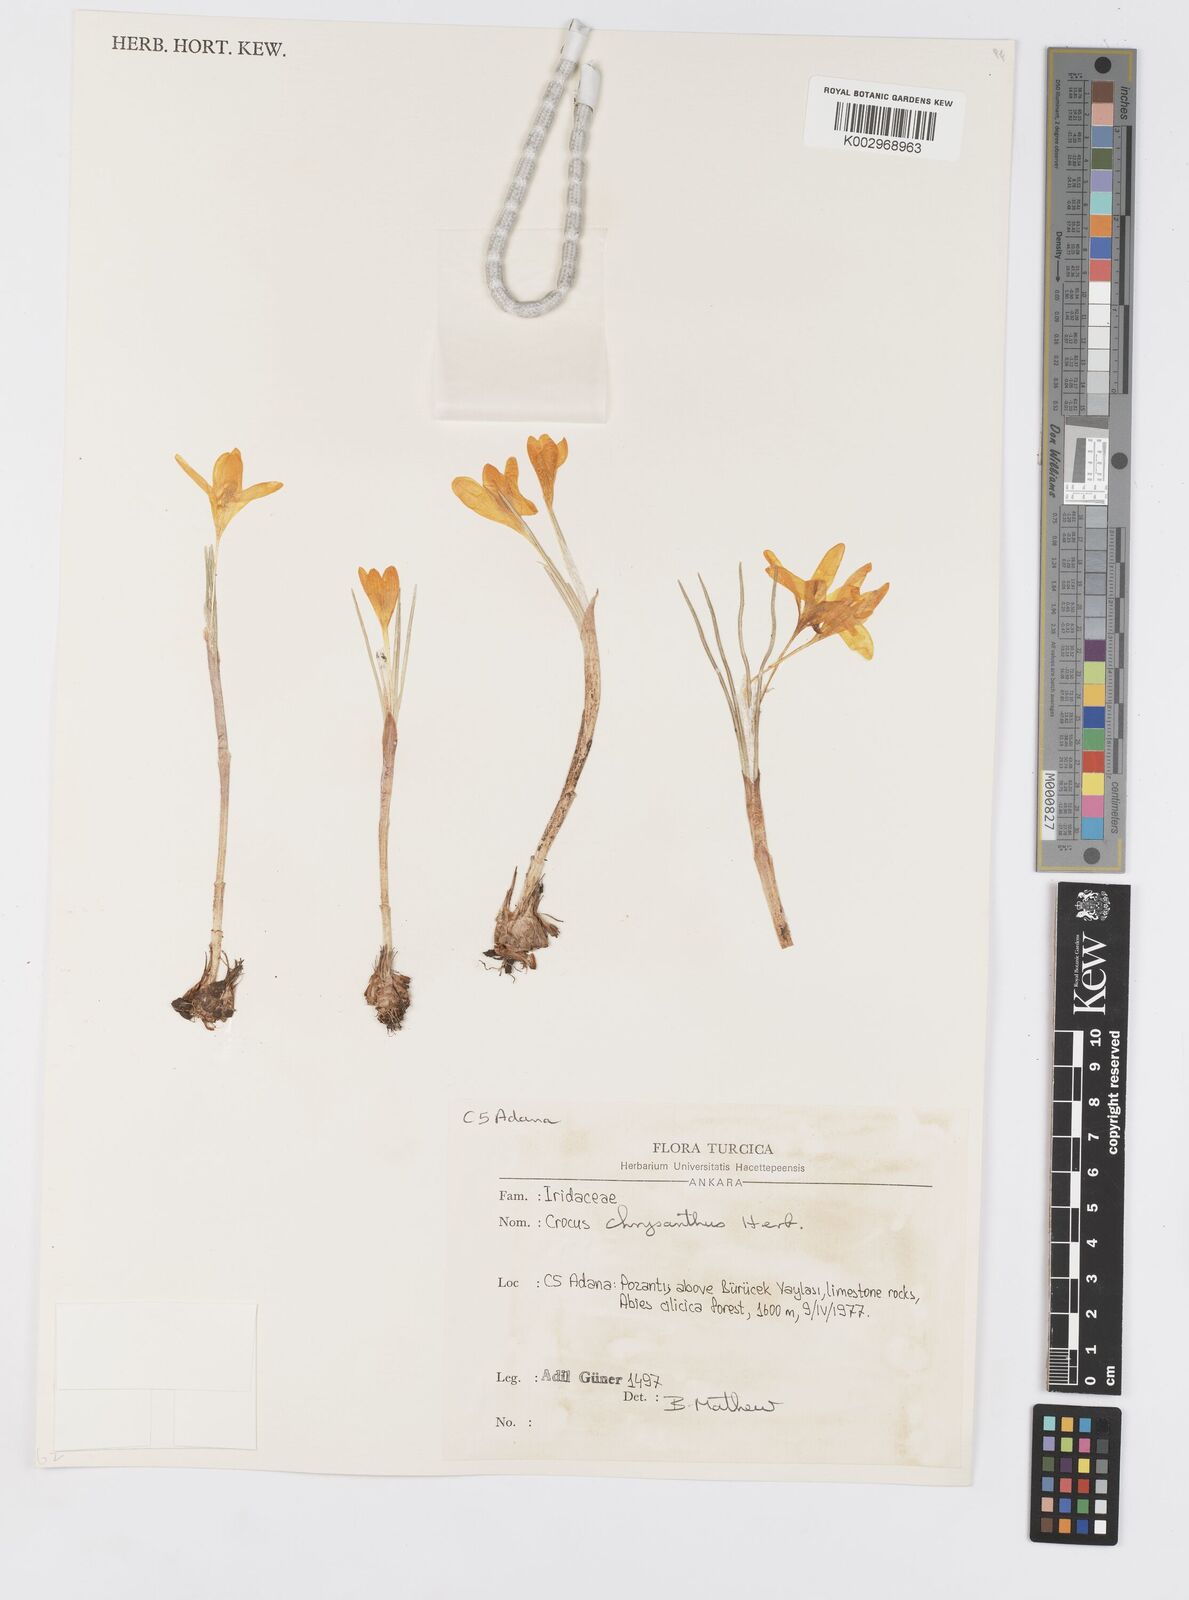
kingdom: Plantae
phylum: Tracheophyta
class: Liliopsida
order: Asparagales
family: Iridaceae
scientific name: Iridaceae
